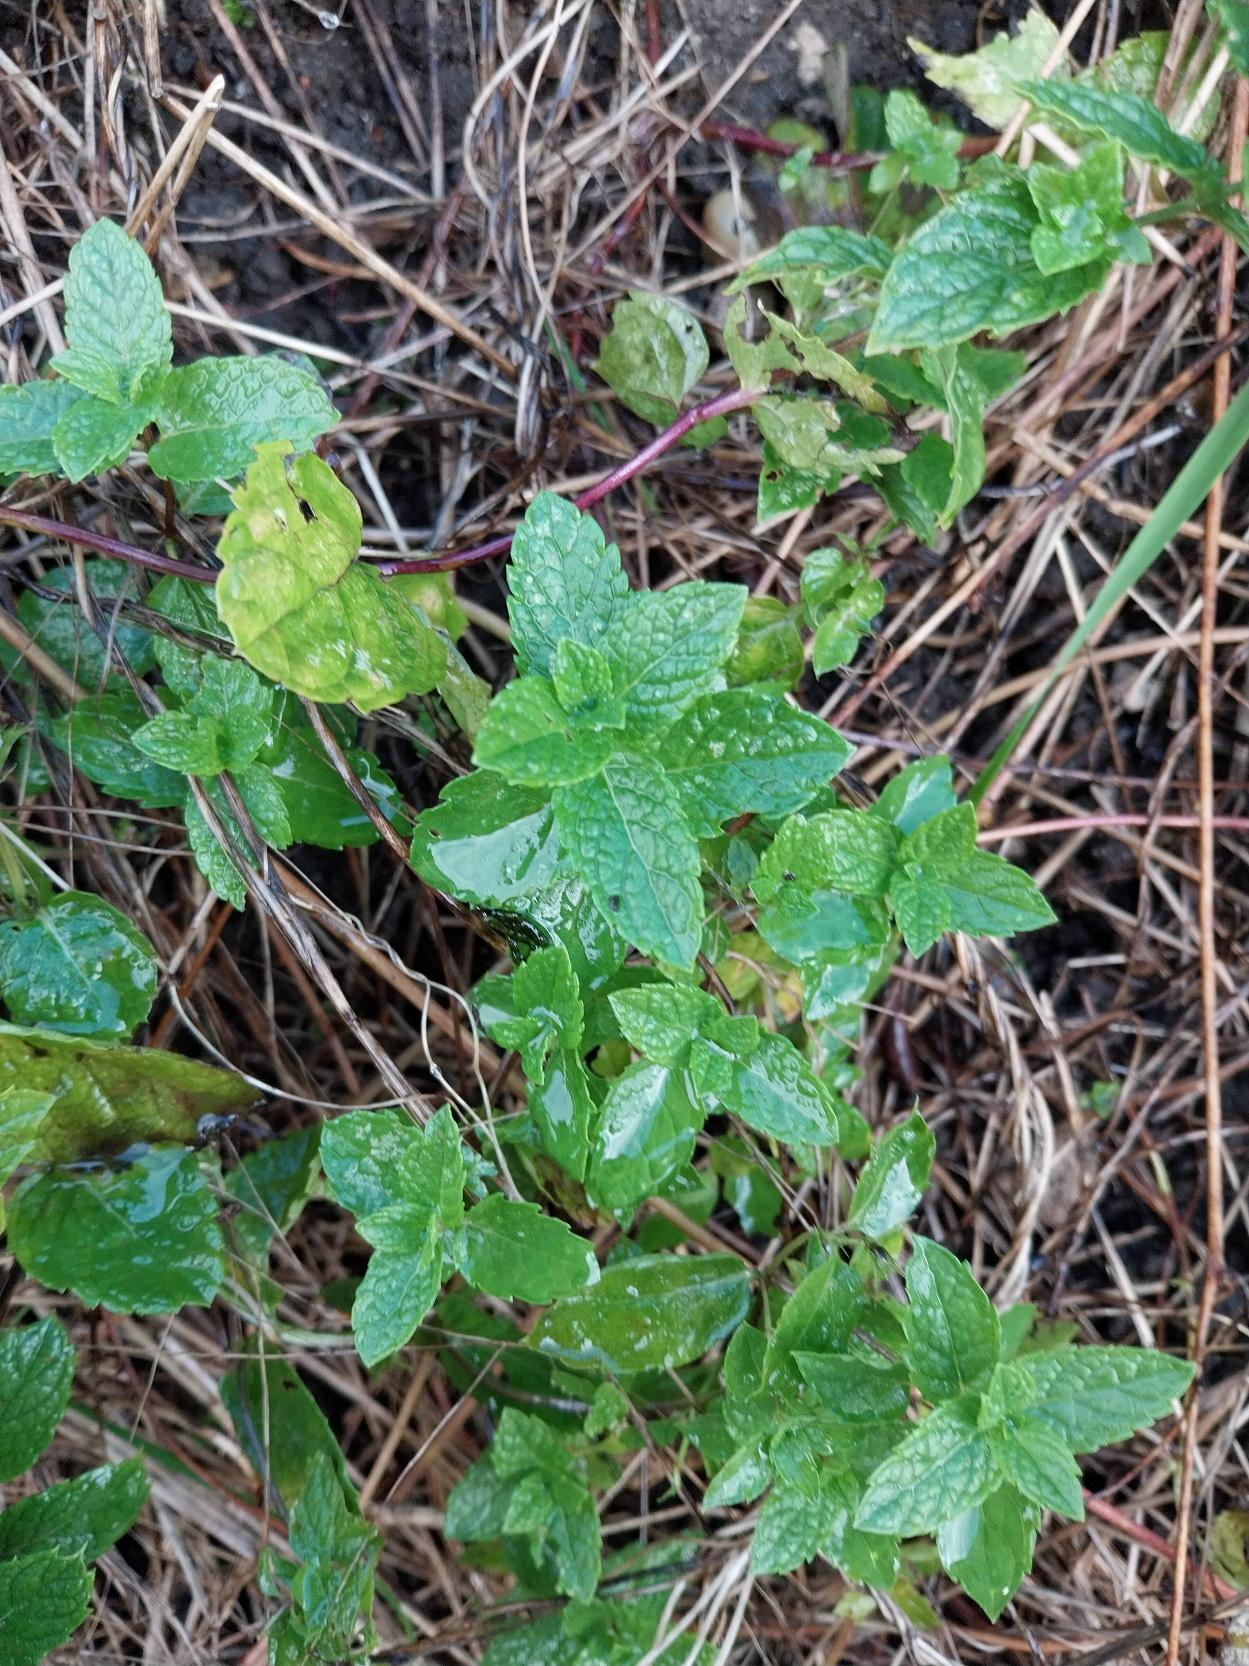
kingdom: Plantae
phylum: Tracheophyta
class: Magnoliopsida
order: Lamiales
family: Lamiaceae
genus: Mentha
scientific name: Mentha rotundifolia
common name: Grå mynte × rundbladet mynte
